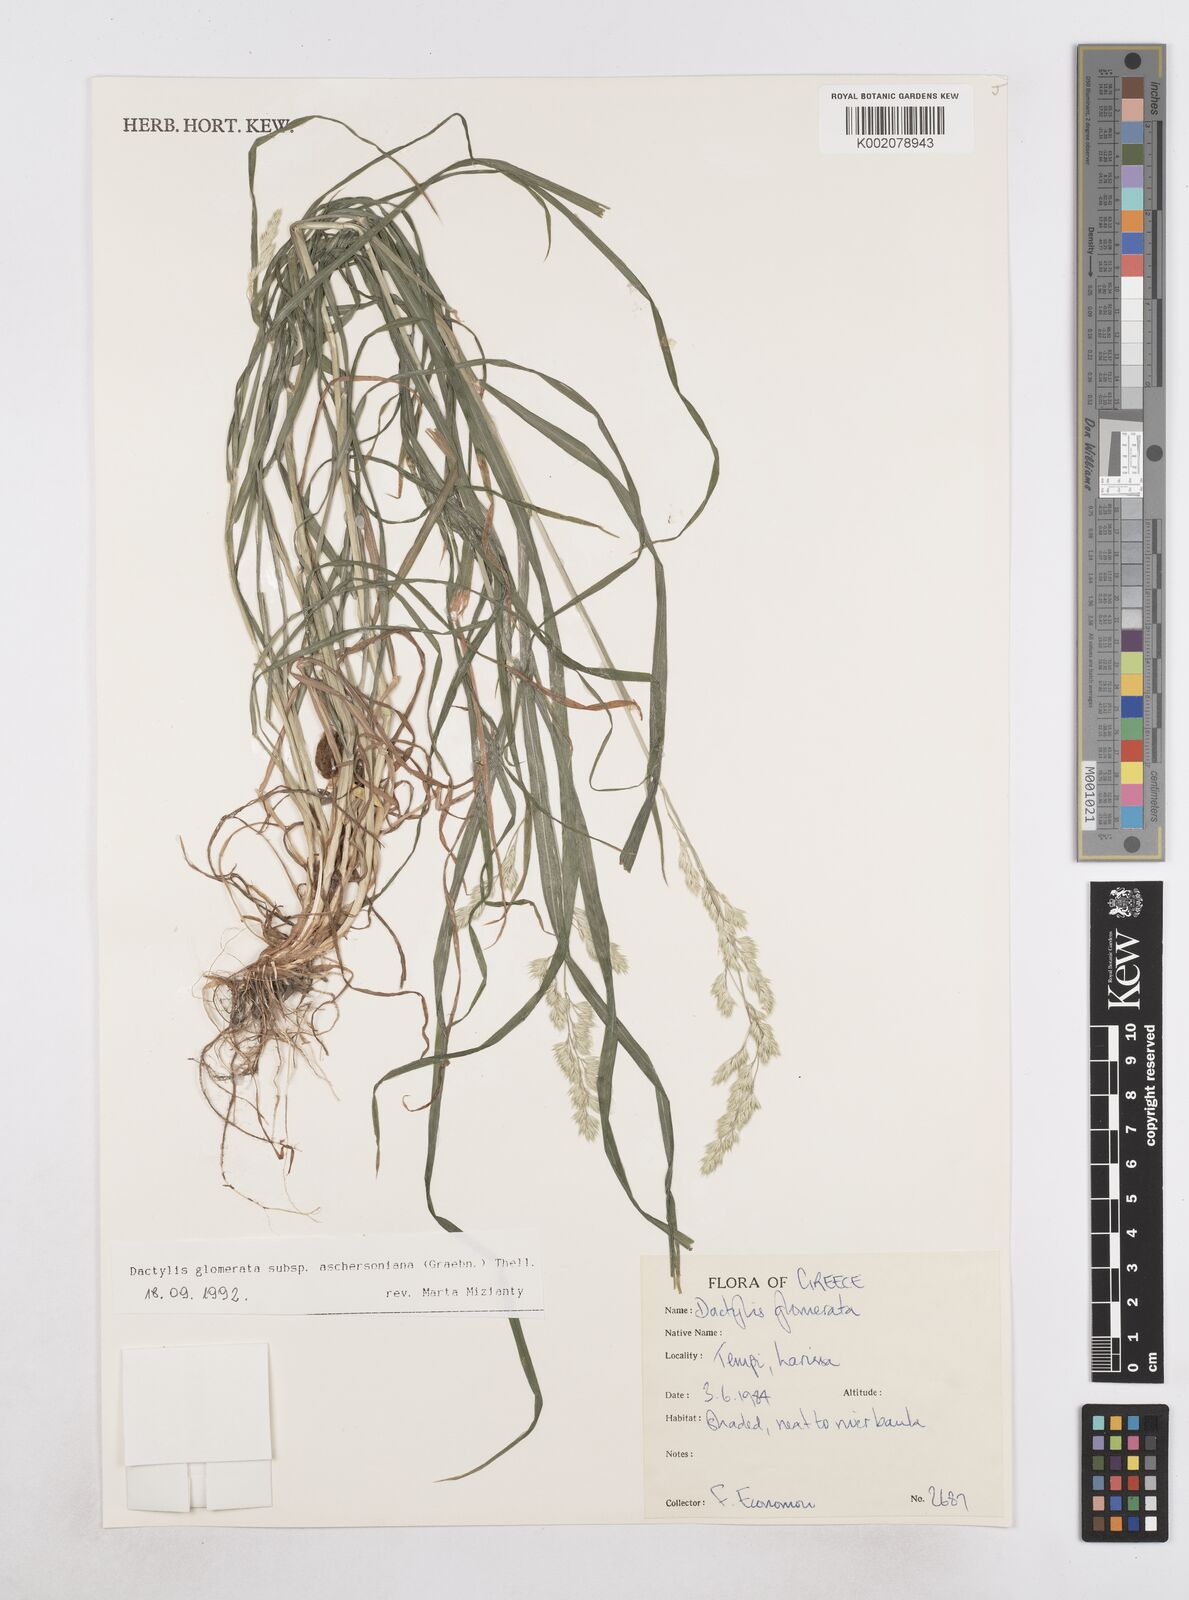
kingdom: Plantae
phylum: Tracheophyta
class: Liliopsida
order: Poales
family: Poaceae
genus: Dactylis
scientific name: Dactylis glomerata
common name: Orchardgrass
